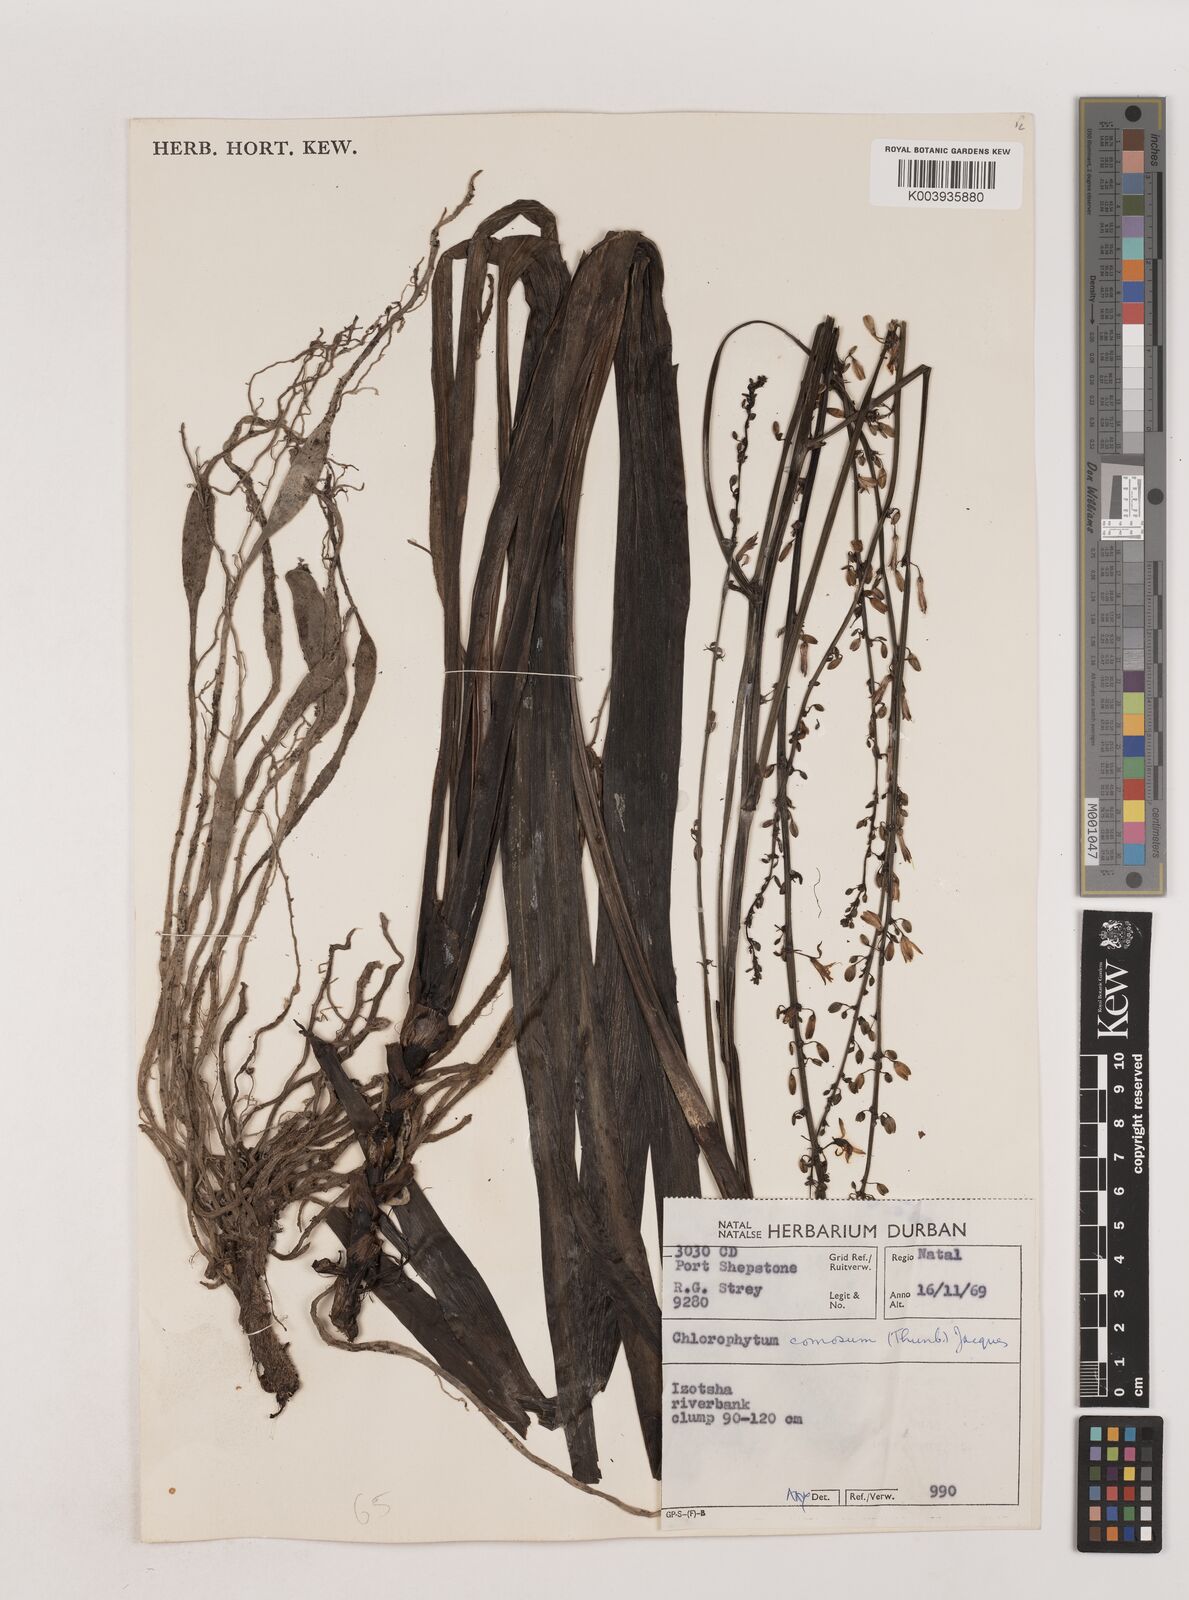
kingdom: Plantae
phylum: Tracheophyta
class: Liliopsida
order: Asparagales
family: Asparagaceae
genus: Chlorophytum
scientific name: Chlorophytum comosum
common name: Spider plant
